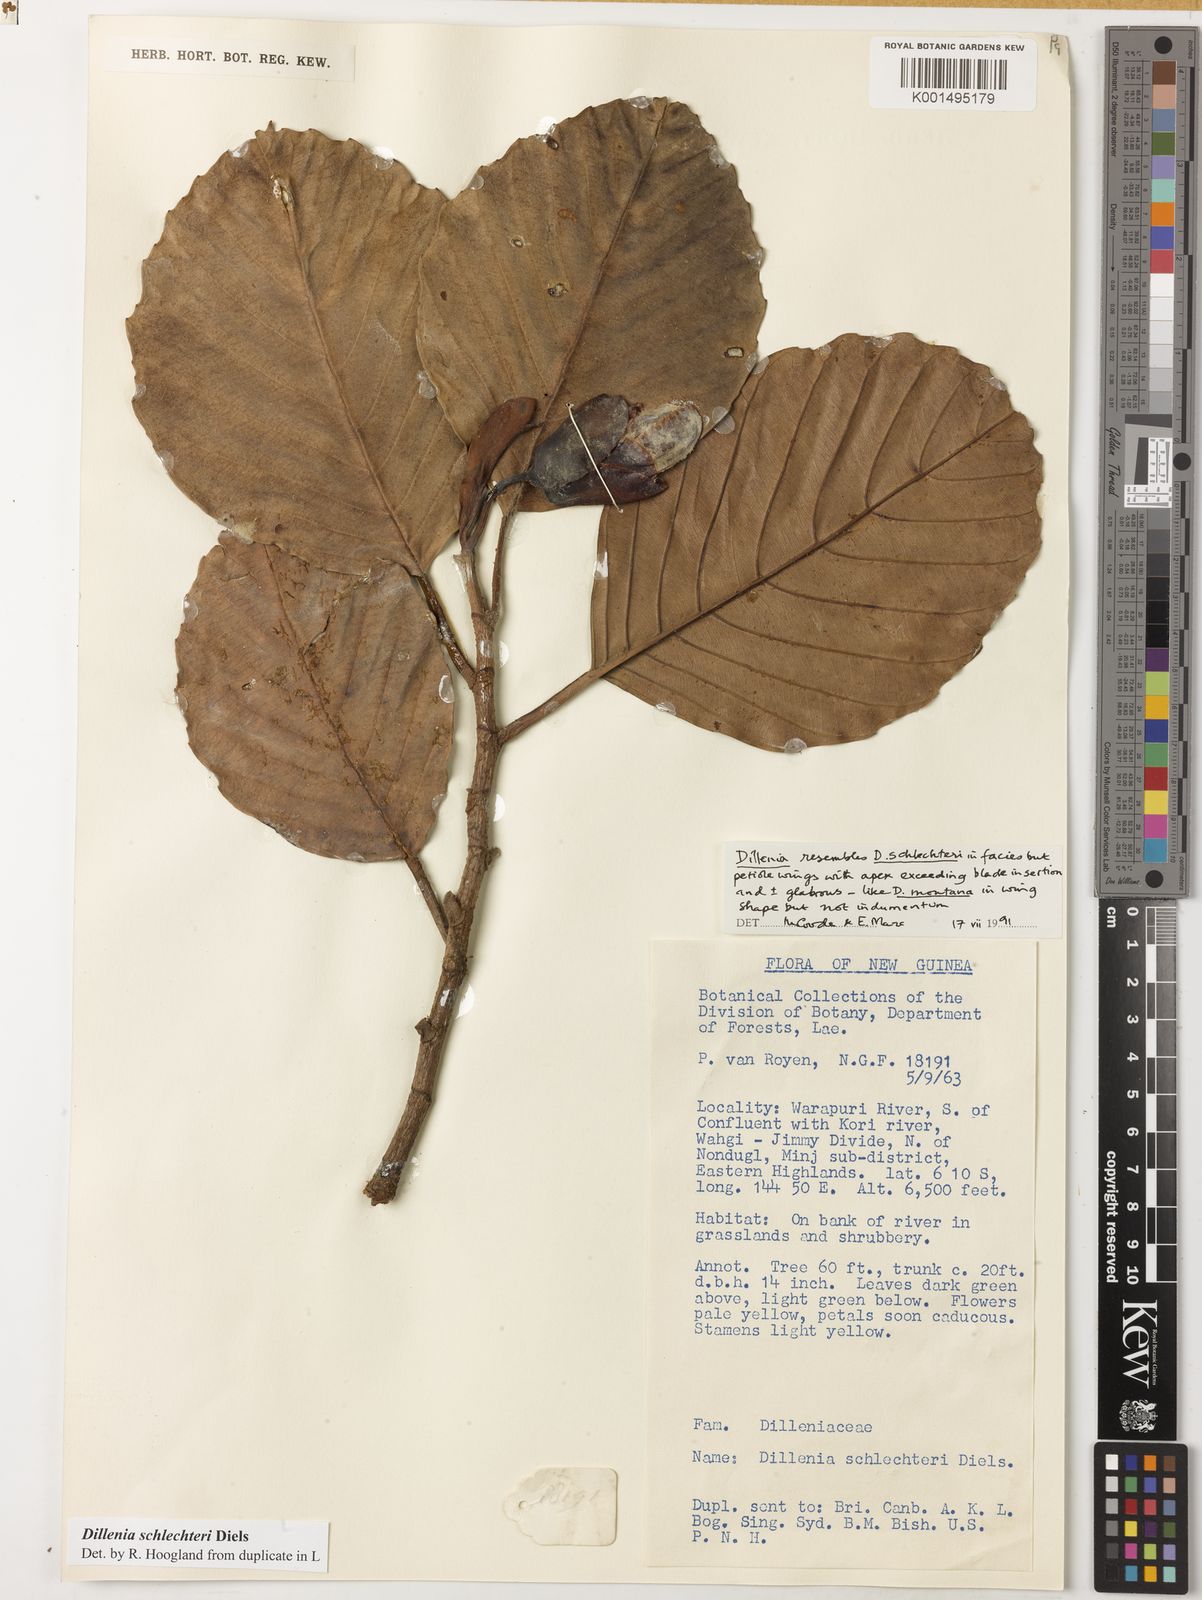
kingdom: Plantae
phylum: Tracheophyta
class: Magnoliopsida
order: Dilleniales
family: Dilleniaceae
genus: Dillenia
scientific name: Dillenia schlechteri
